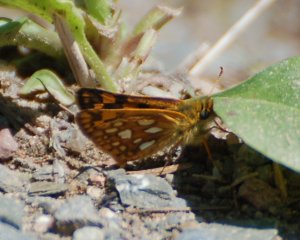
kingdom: Animalia
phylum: Arthropoda
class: Insecta
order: Lepidoptera
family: Hesperiidae
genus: Carterocephalus
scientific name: Carterocephalus palaemon
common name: Chequered Skipper
